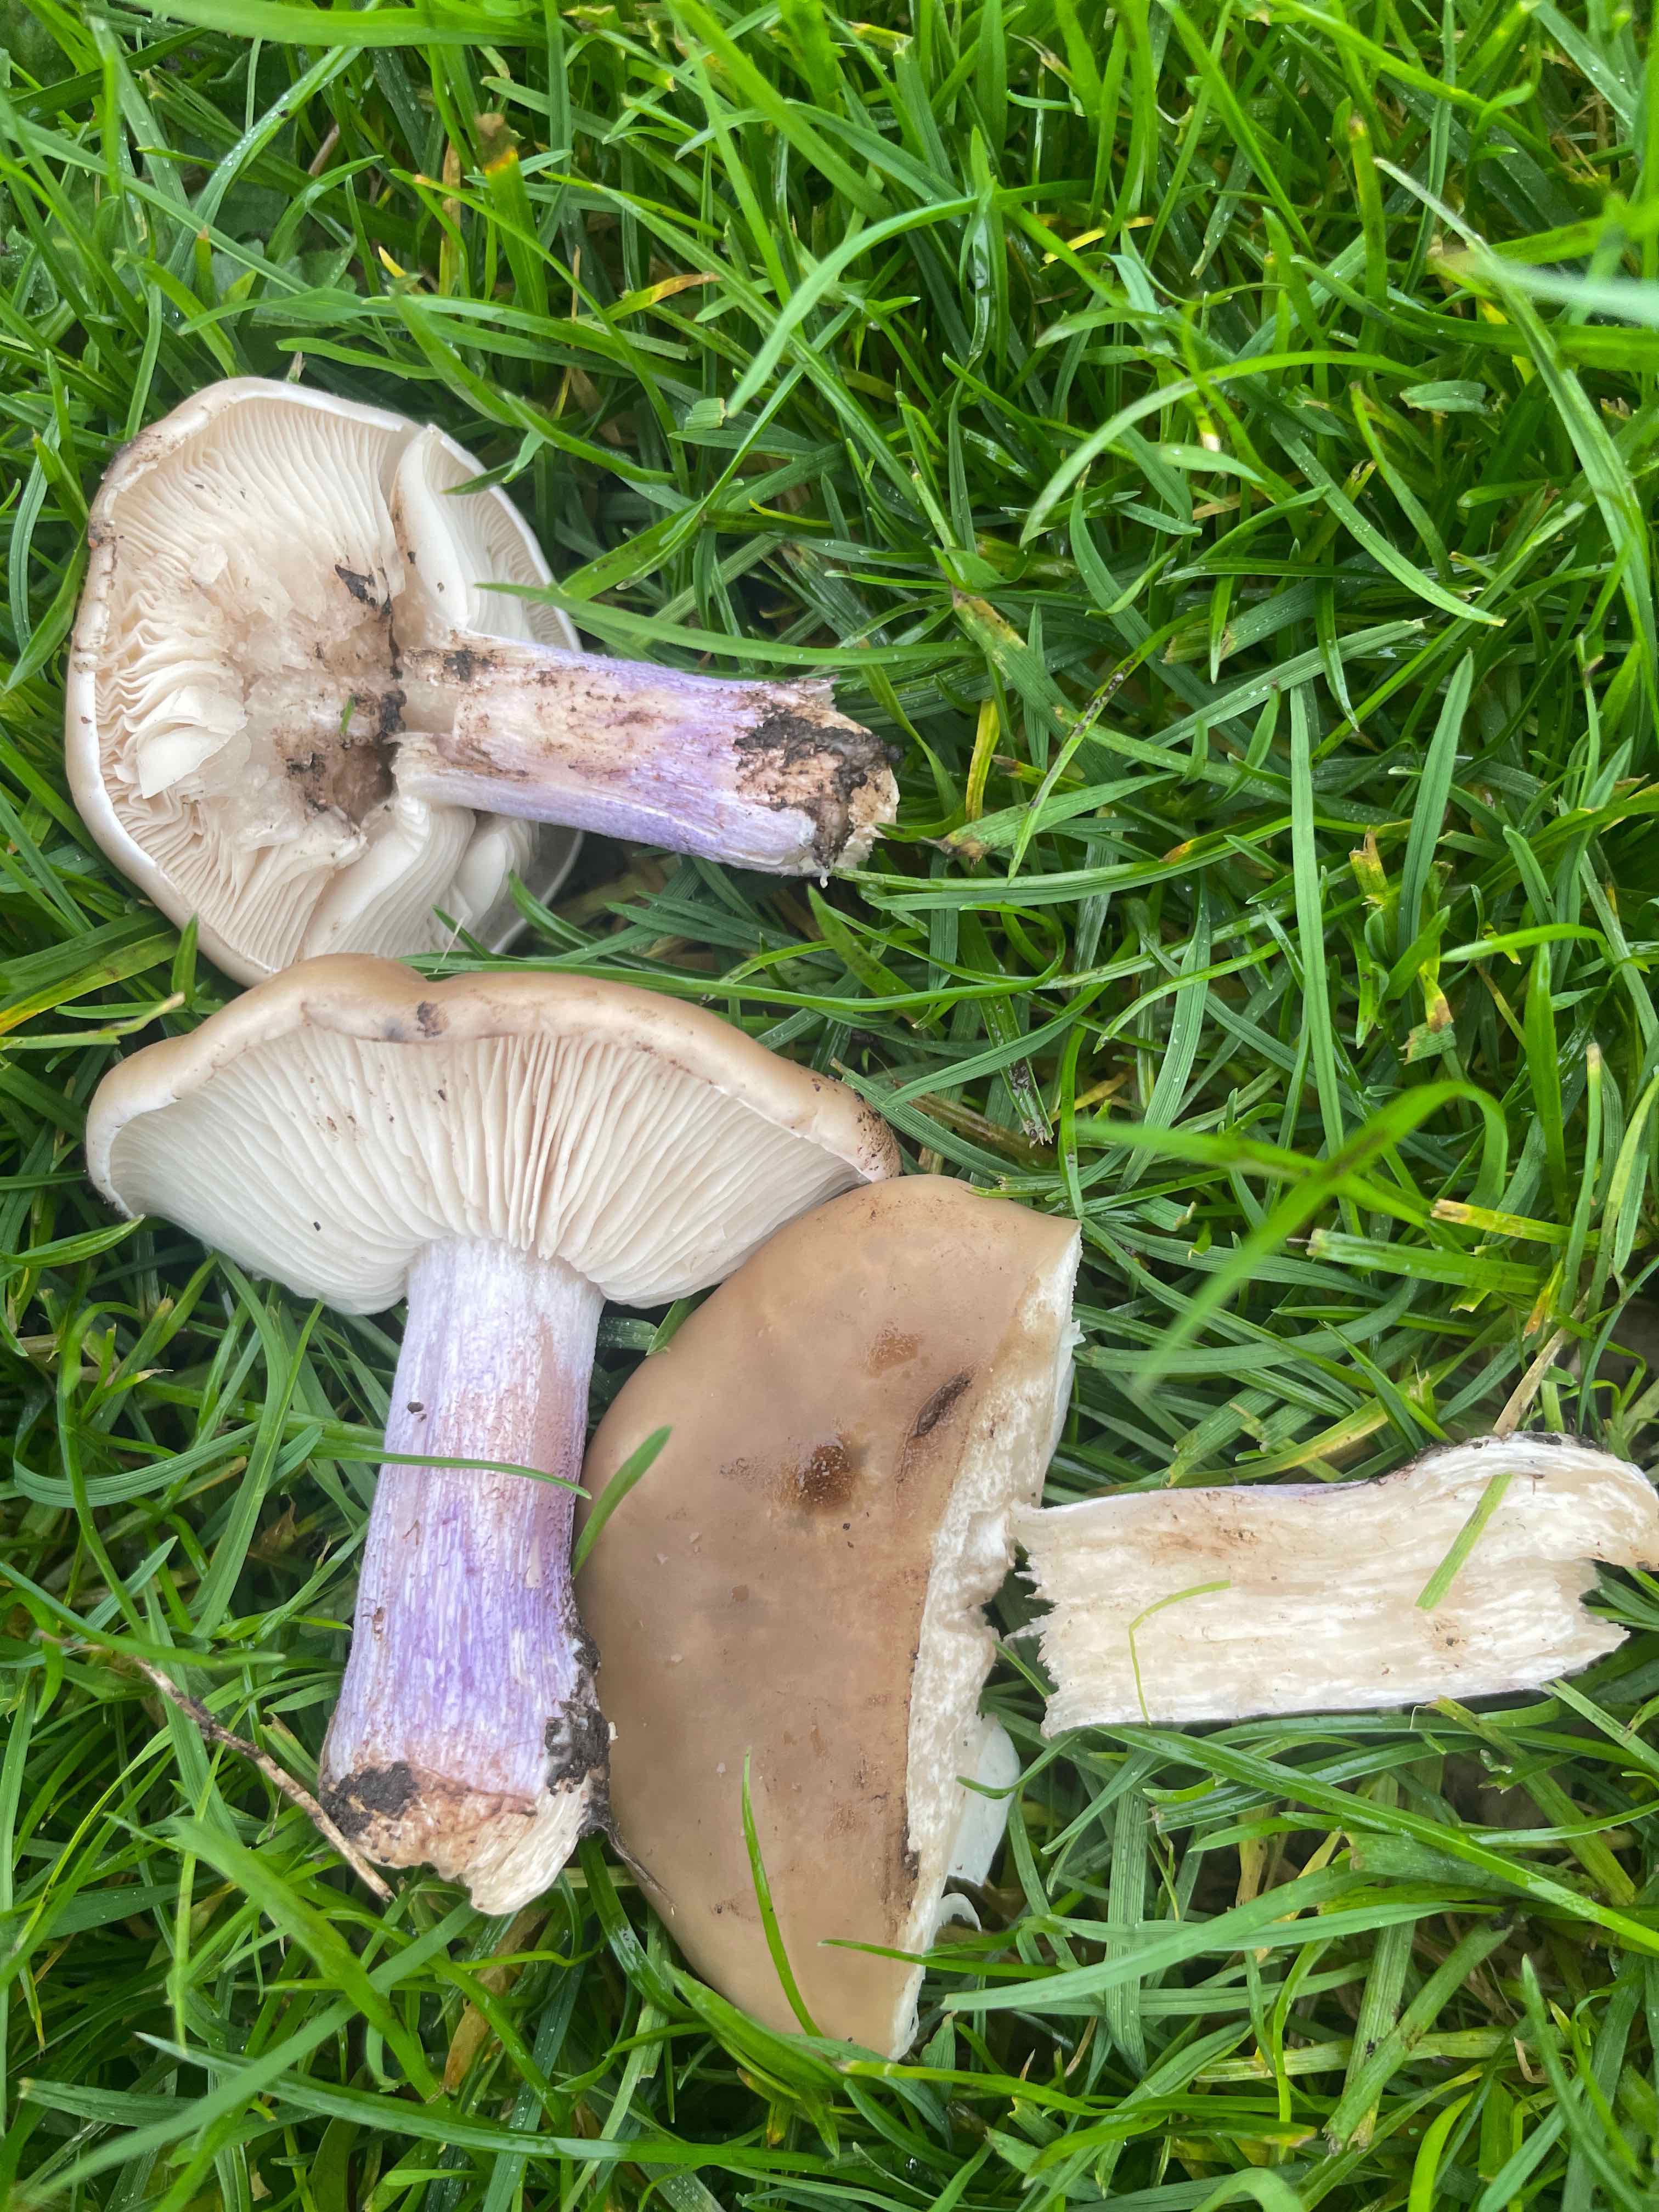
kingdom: Fungi
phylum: Basidiomycota
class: Agaricomycetes
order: Agaricales
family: Tricholomataceae
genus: Lepista
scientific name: Lepista personata
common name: bleg hekseringshat
